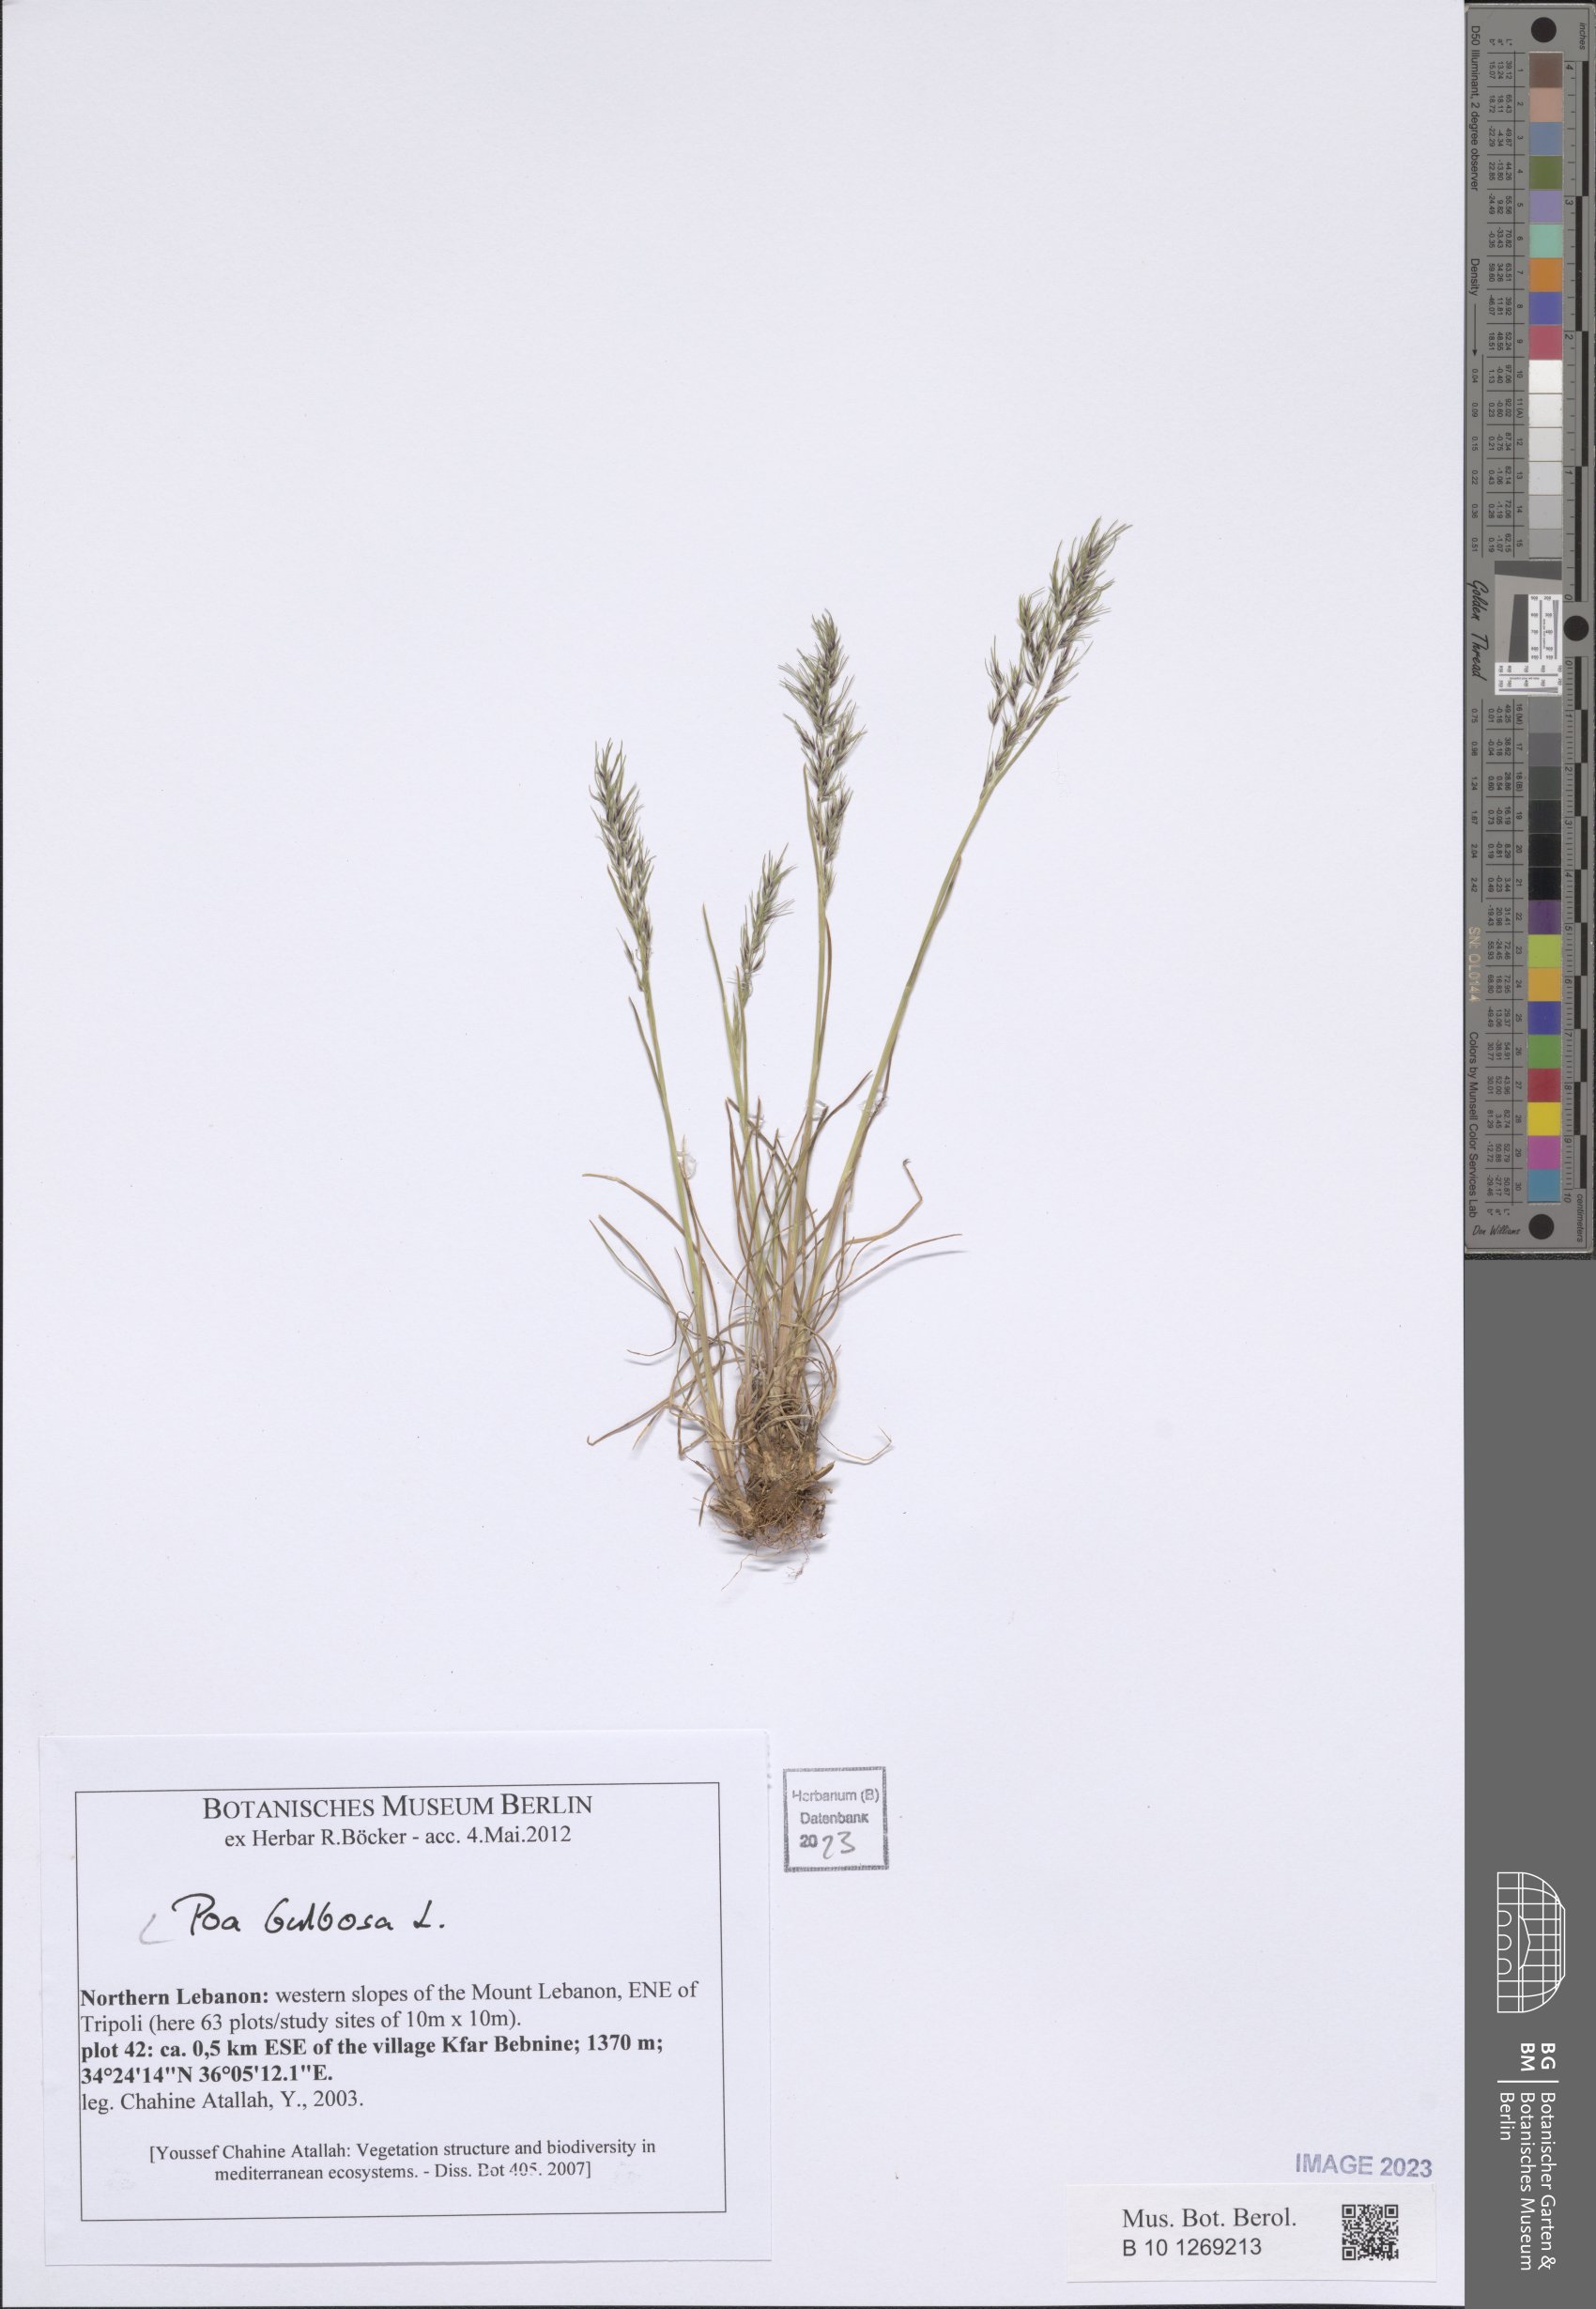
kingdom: Plantae
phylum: Tracheophyta
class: Liliopsida
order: Poales
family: Poaceae
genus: Poa
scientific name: Poa bulbosa
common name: Bulbous bluegrass
